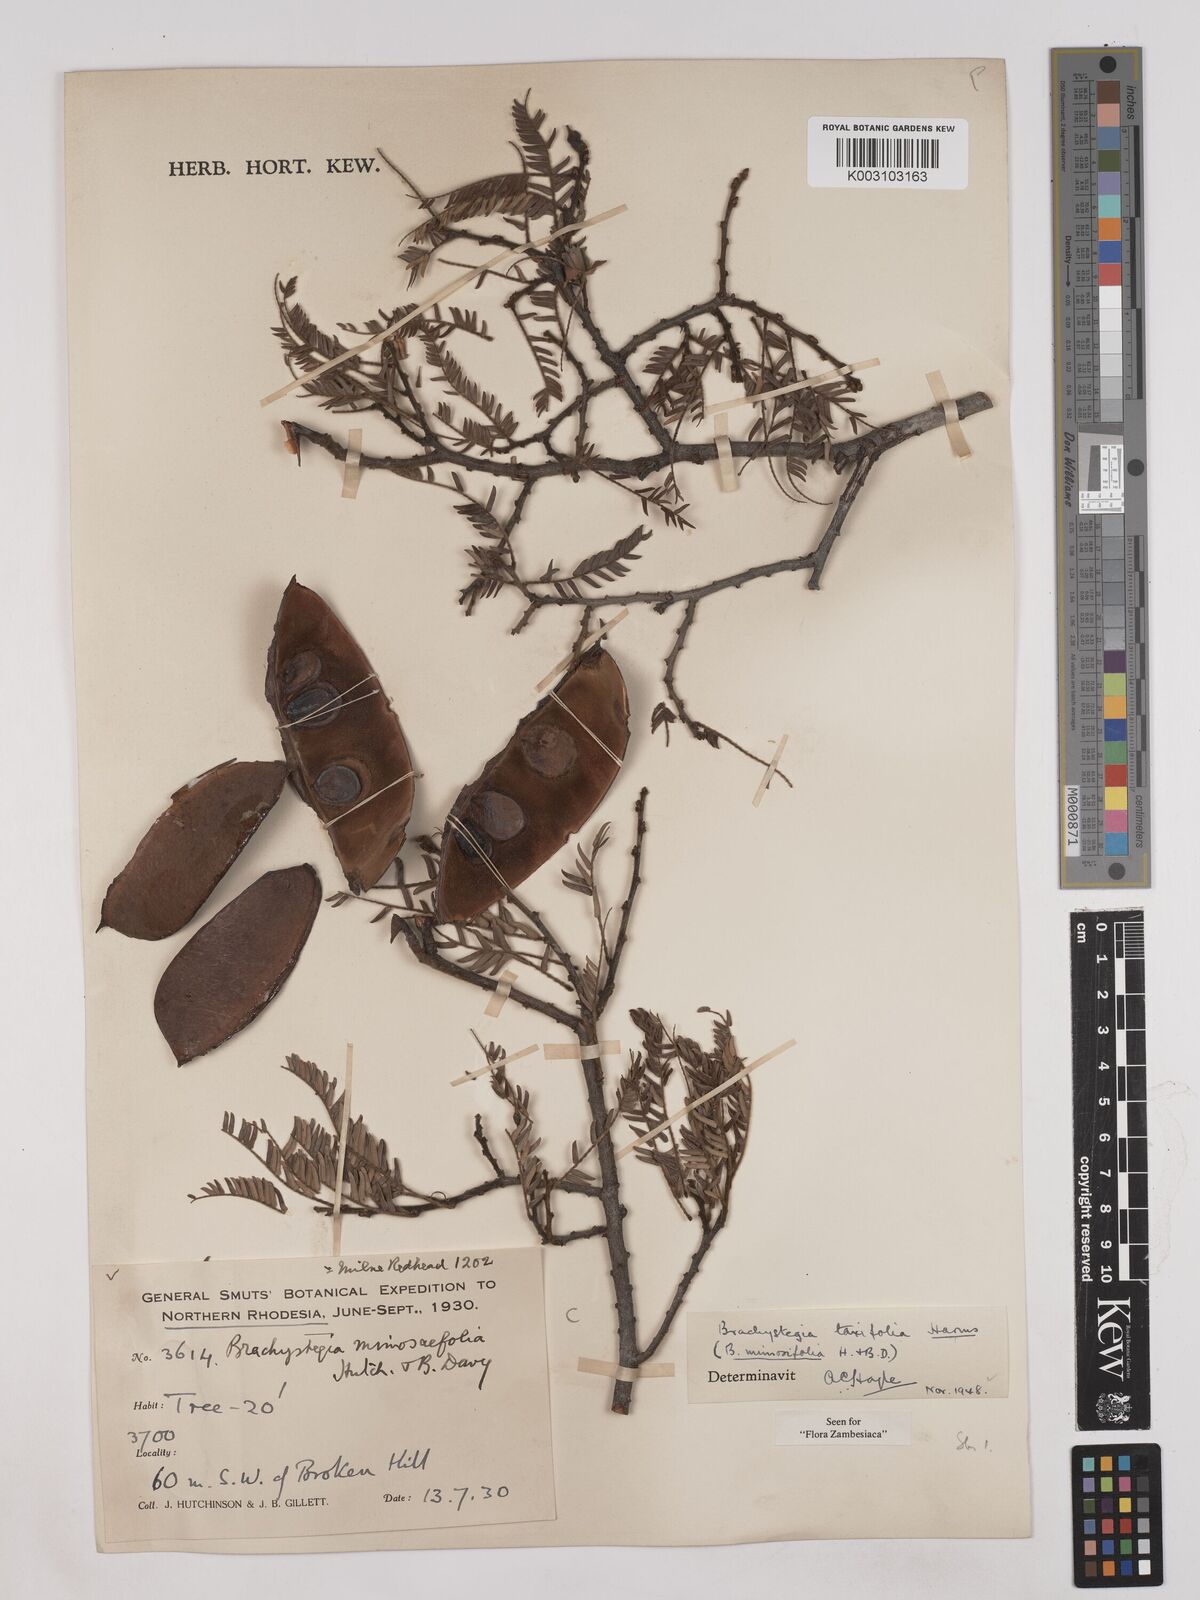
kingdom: Plantae
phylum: Tracheophyta
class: Magnoliopsida
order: Fabales
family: Fabaceae
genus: Brachystegia
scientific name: Brachystegia taxifolia
